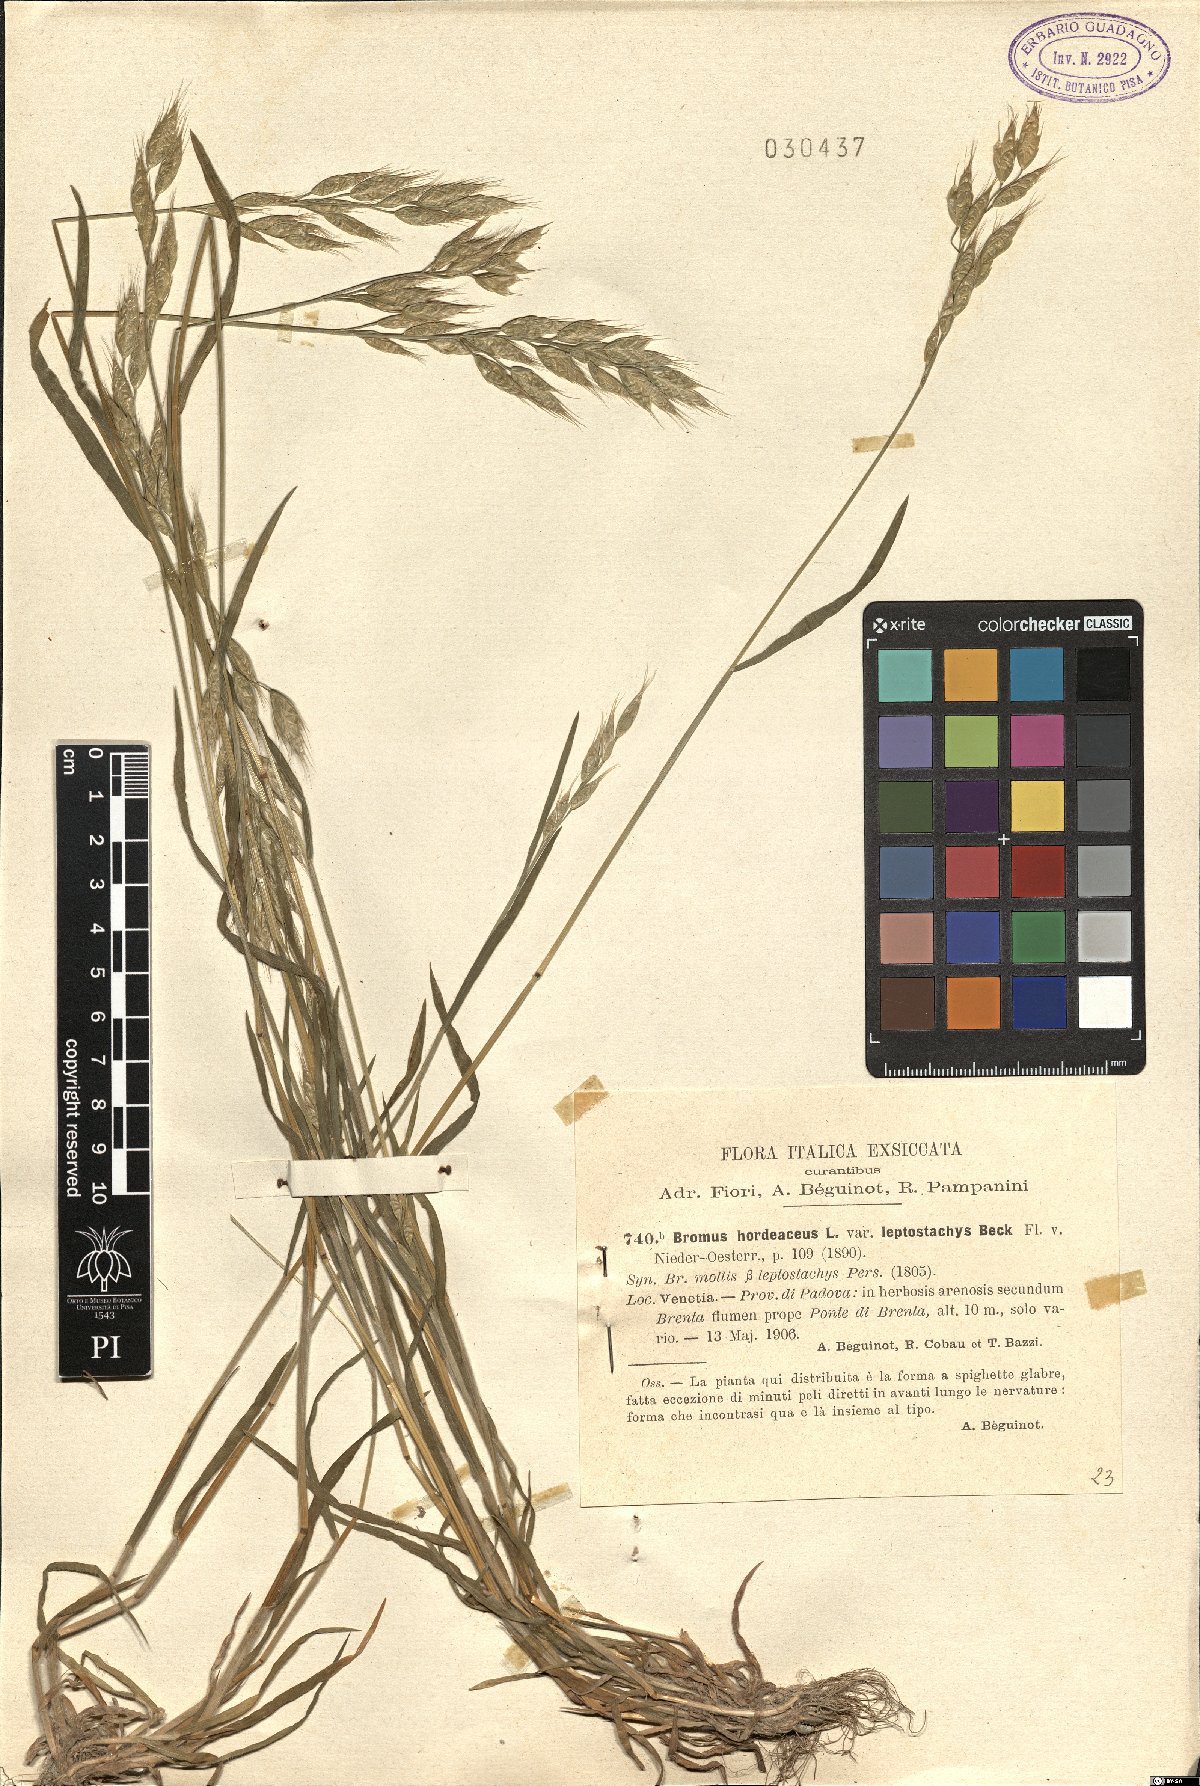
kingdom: Plantae
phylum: Tracheophyta
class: Liliopsida
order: Poales
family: Poaceae
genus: Bromus
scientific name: Bromus racemosus
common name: Bald brome
